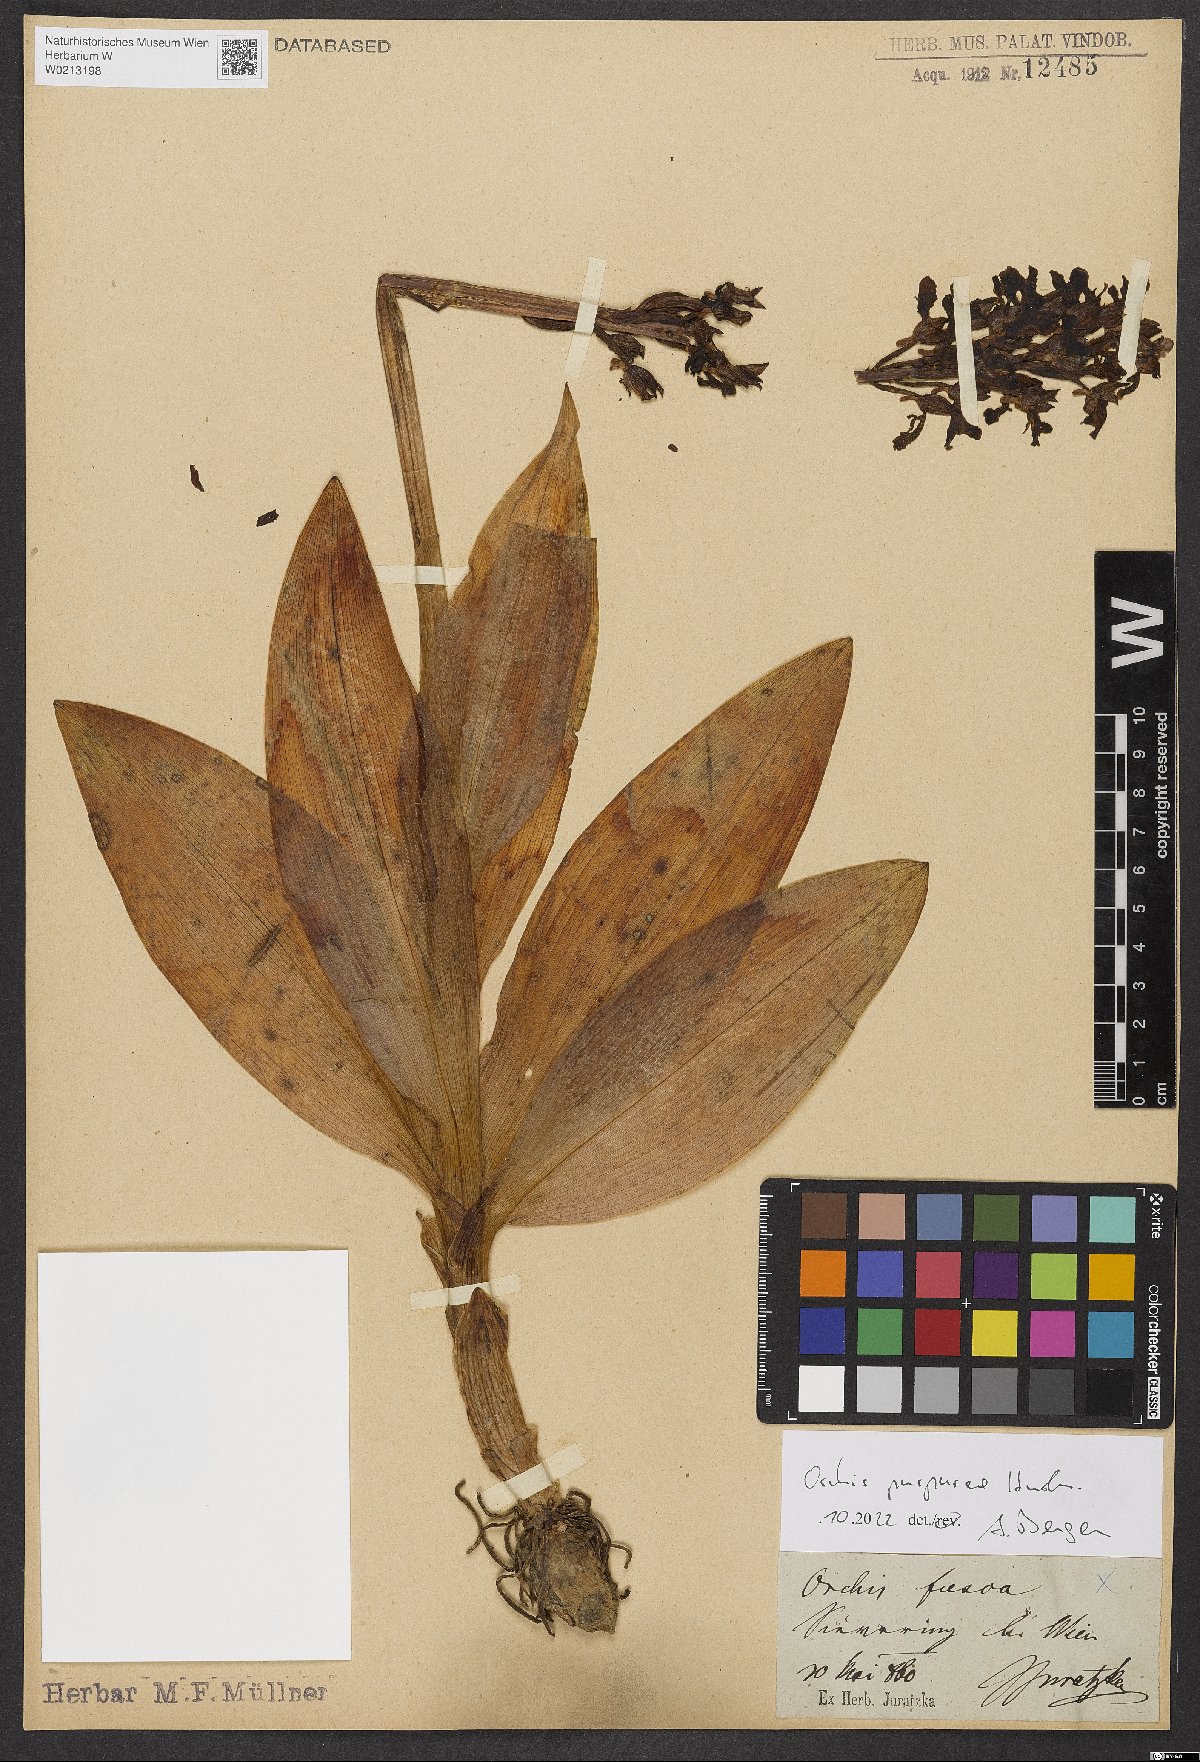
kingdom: Plantae
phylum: Tracheophyta
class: Liliopsida
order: Asparagales
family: Orchidaceae
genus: Orchis
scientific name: Orchis purpurea
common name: Lady orchid
